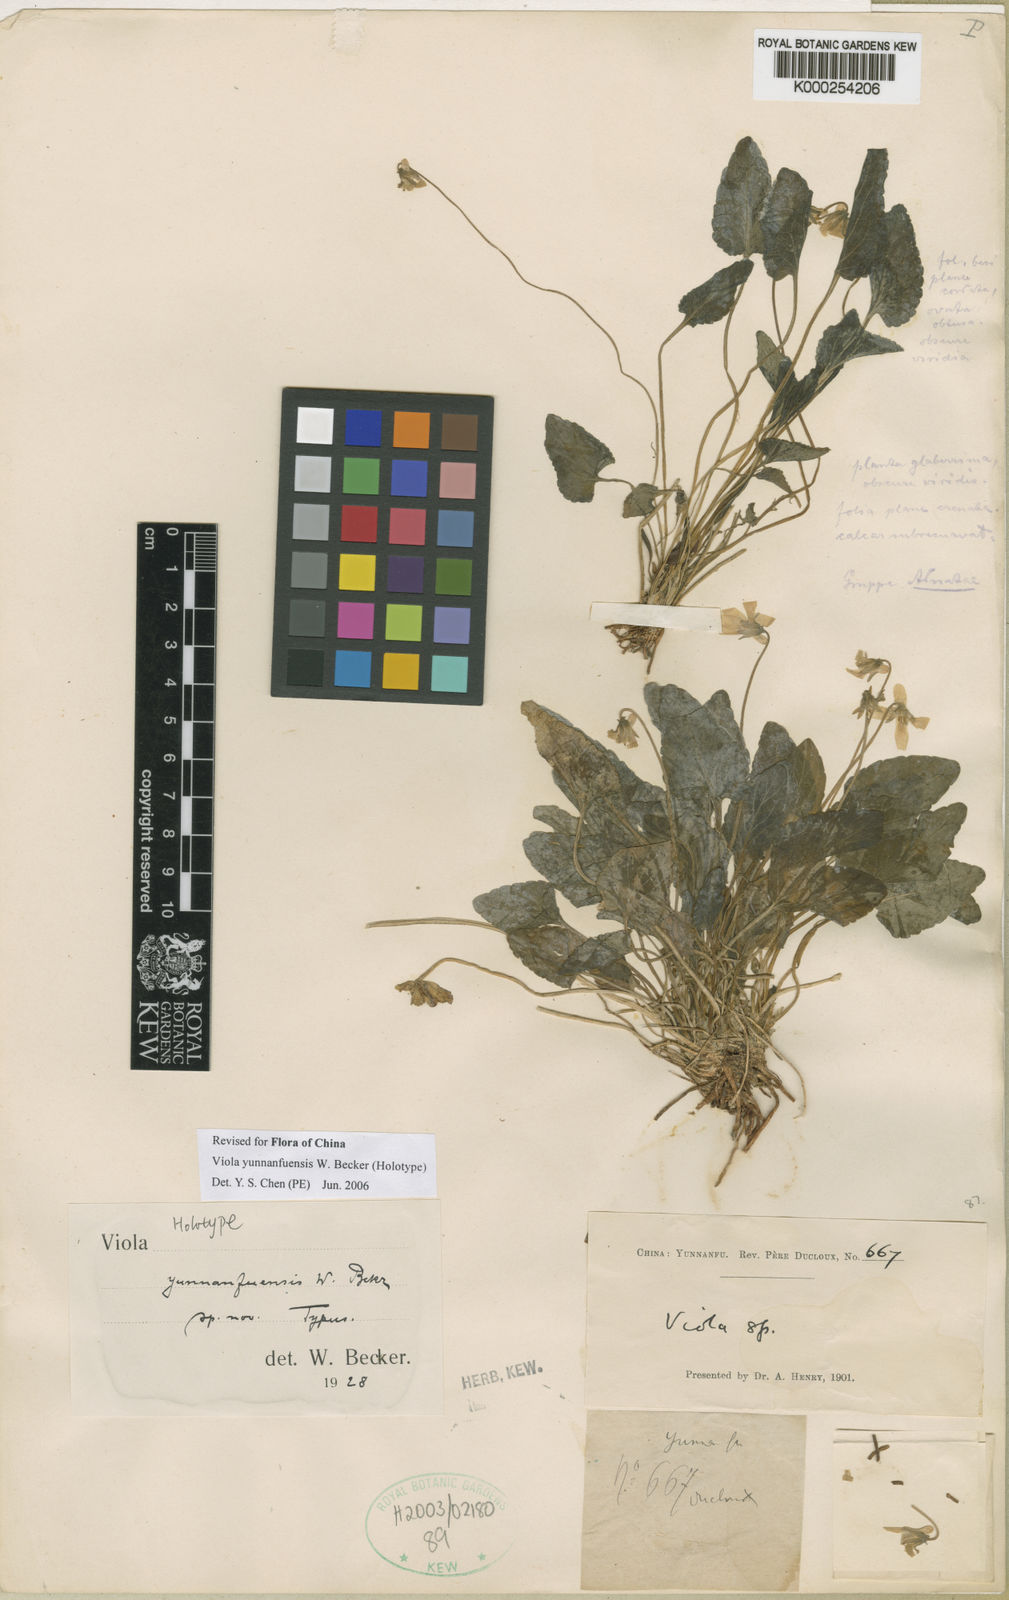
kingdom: Plantae
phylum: Tracheophyta
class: Magnoliopsida
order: Malpighiales
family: Violaceae
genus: Viola
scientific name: Viola yunnanfuensis
